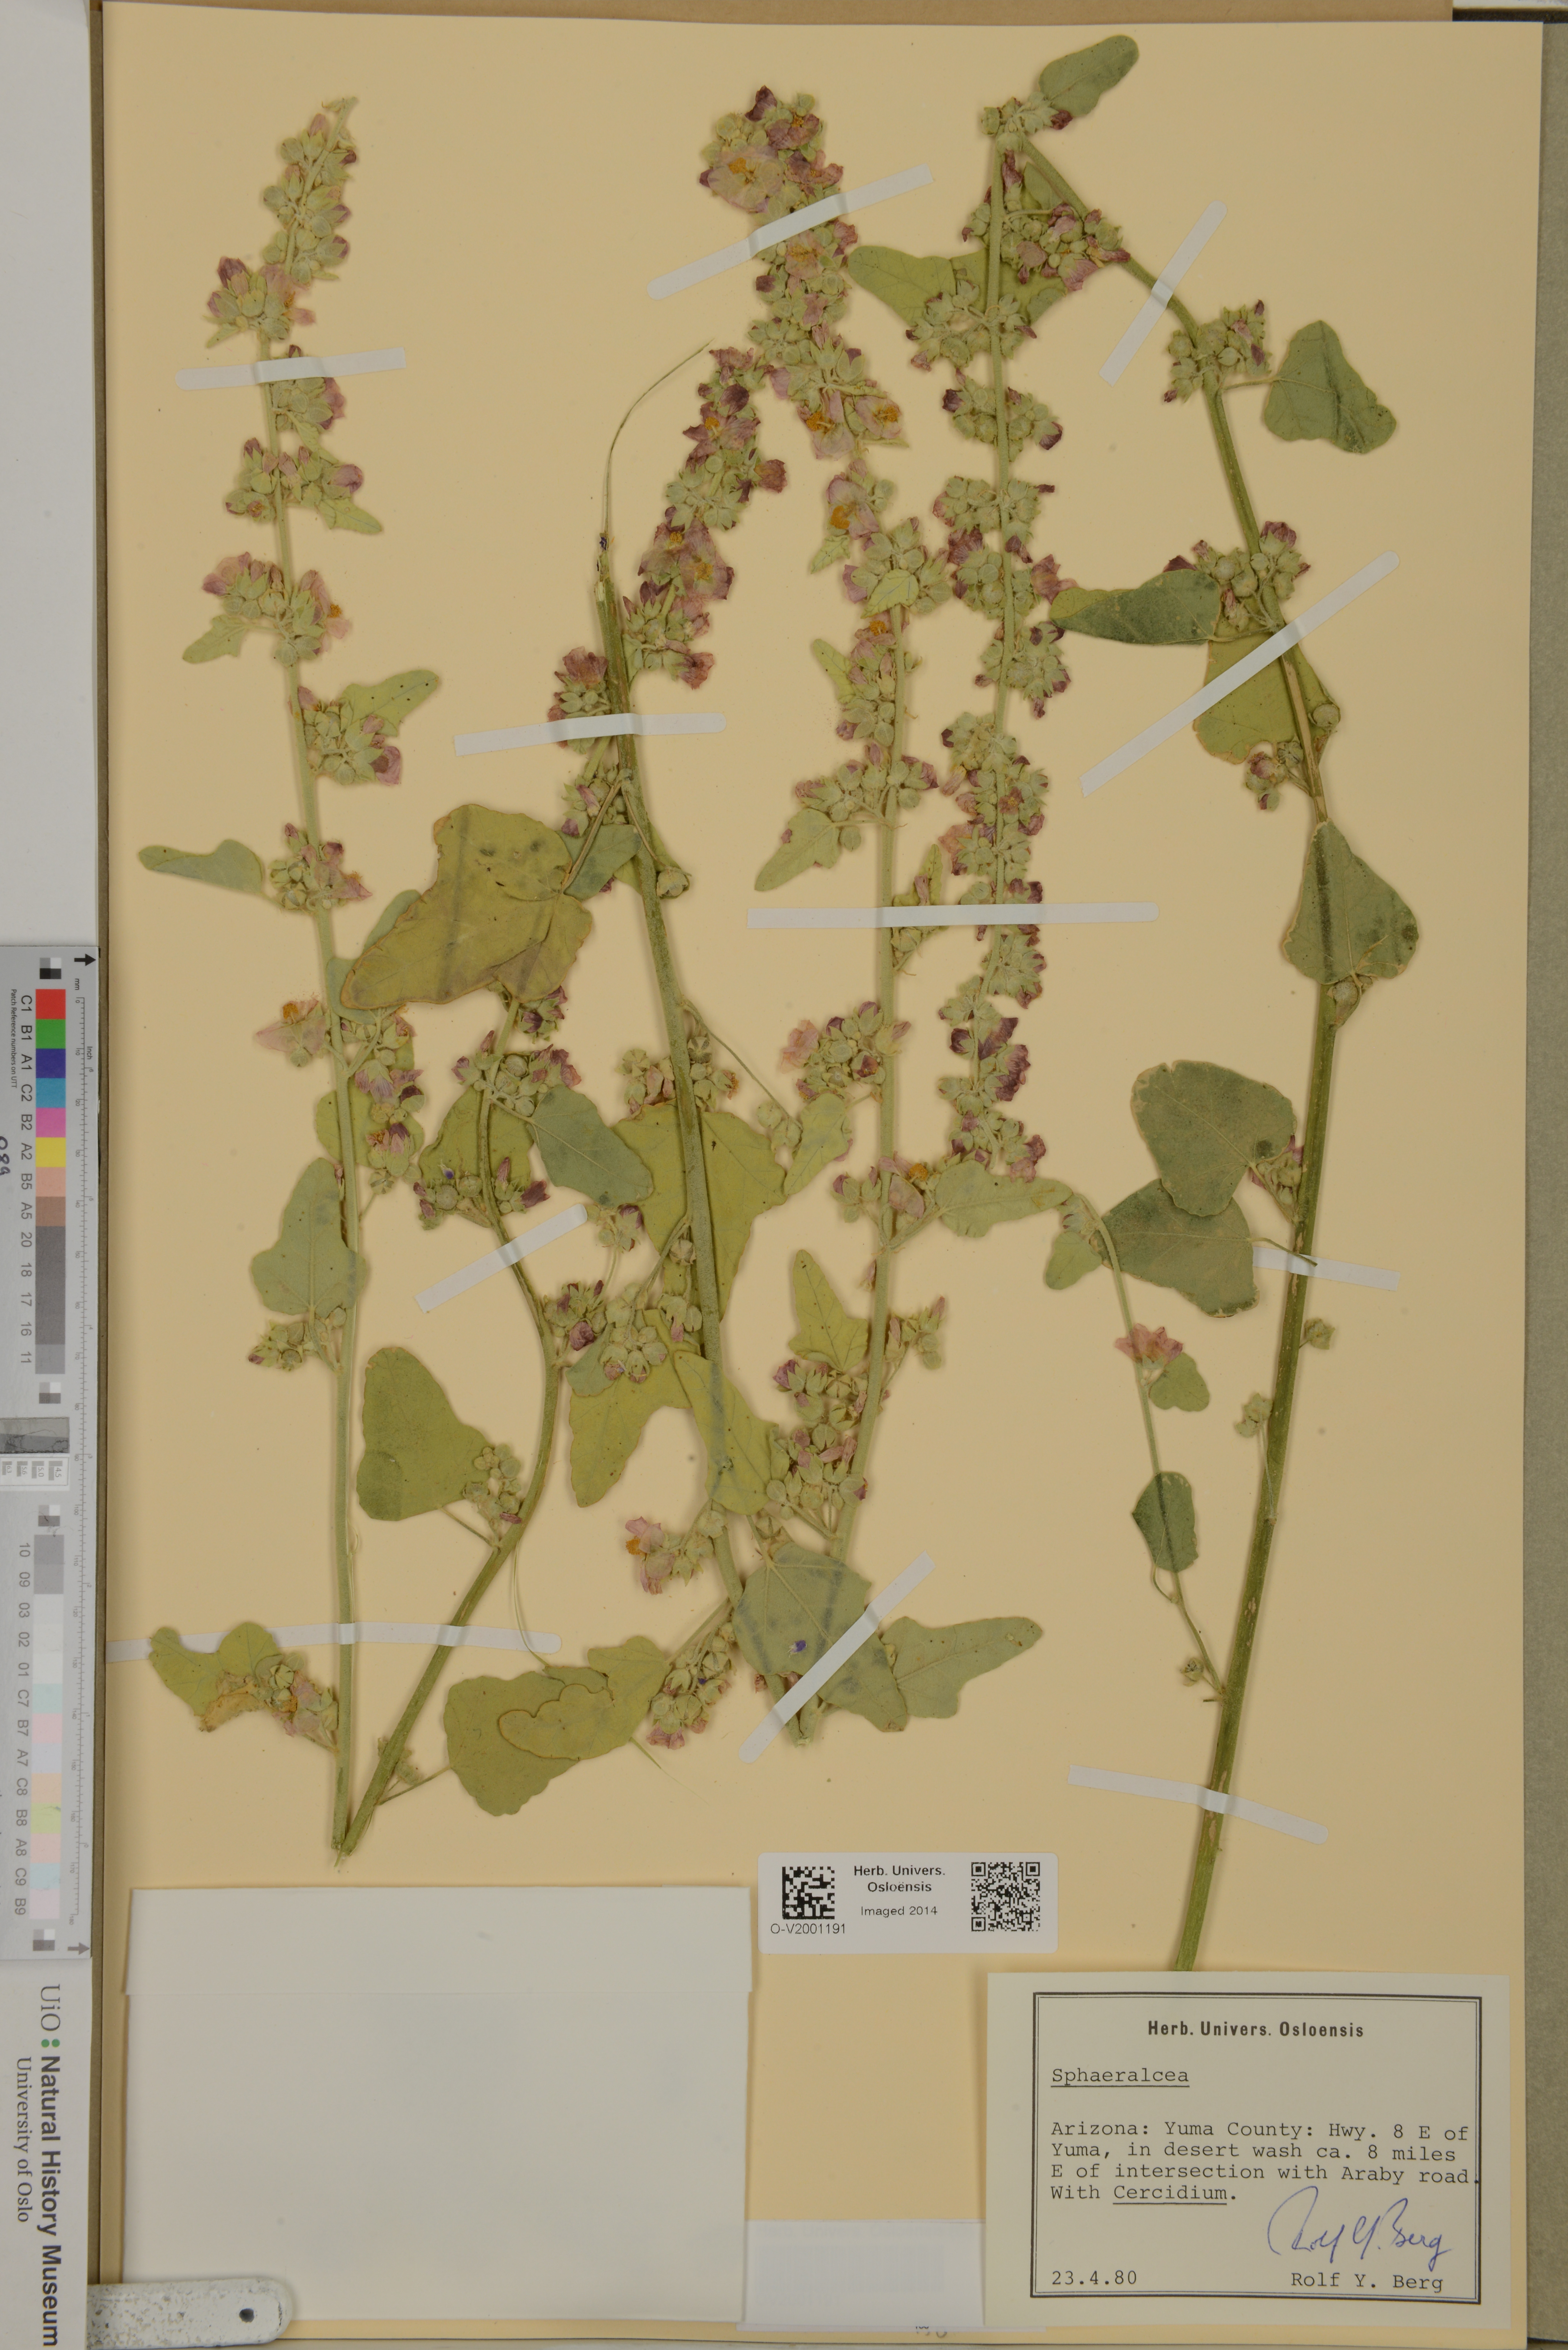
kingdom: Plantae
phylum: Tracheophyta
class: Magnoliopsida
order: Malvales
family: Malvaceae
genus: Sphaeralcea
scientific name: Sphaeralcea
